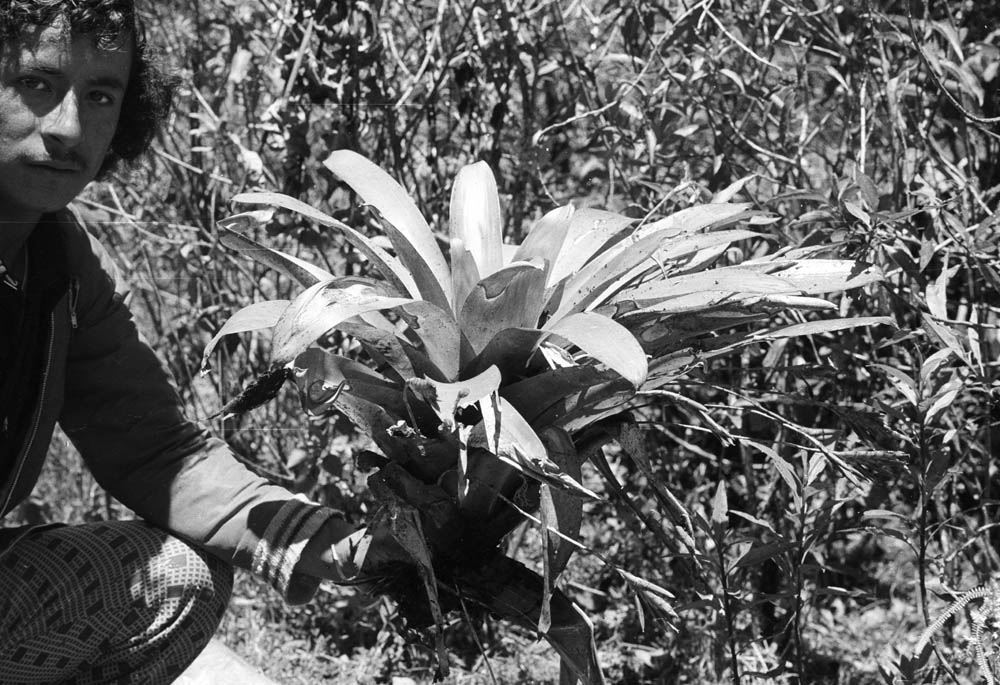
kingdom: Plantae
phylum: Tracheophyta
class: Liliopsida
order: Poales
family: Bromeliaceae
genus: Tillandsia
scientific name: Tillandsia complanata
